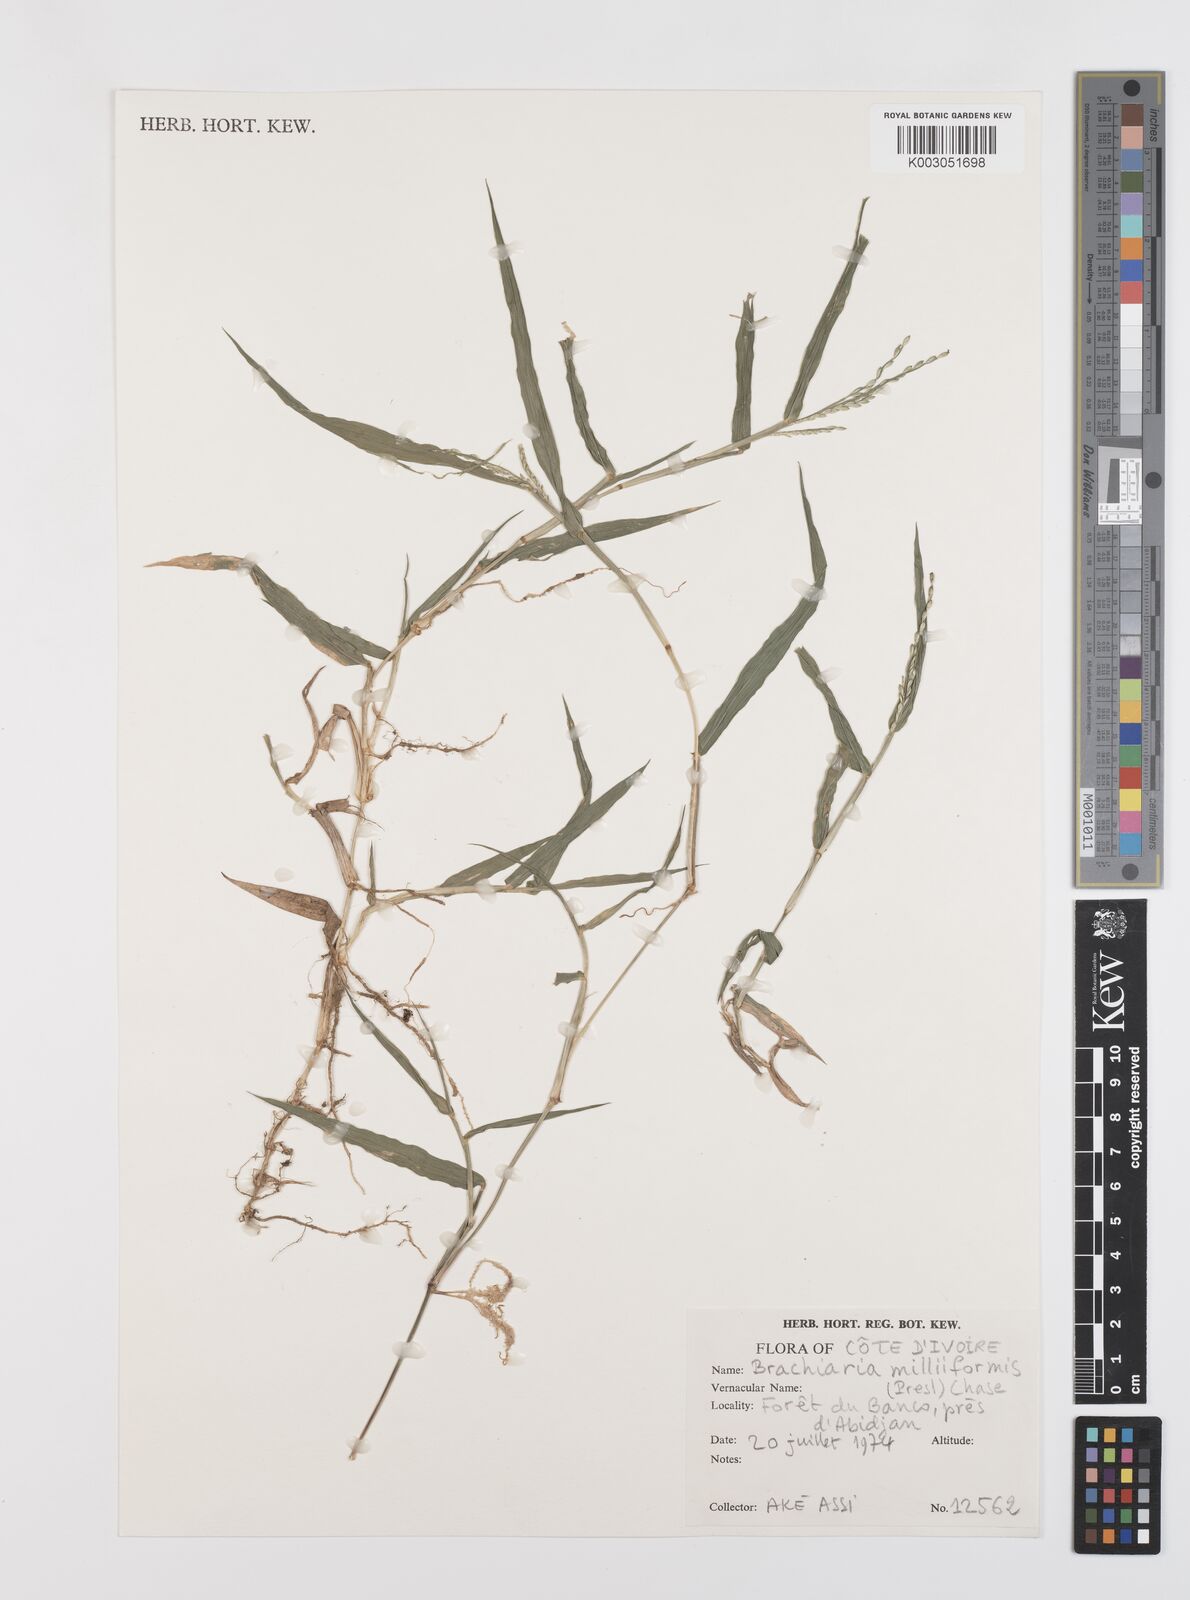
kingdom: Plantae
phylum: Tracheophyta
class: Liliopsida
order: Poales
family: Poaceae
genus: Urochloa
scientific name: Urochloa subquadripara
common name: Armgrass millet
